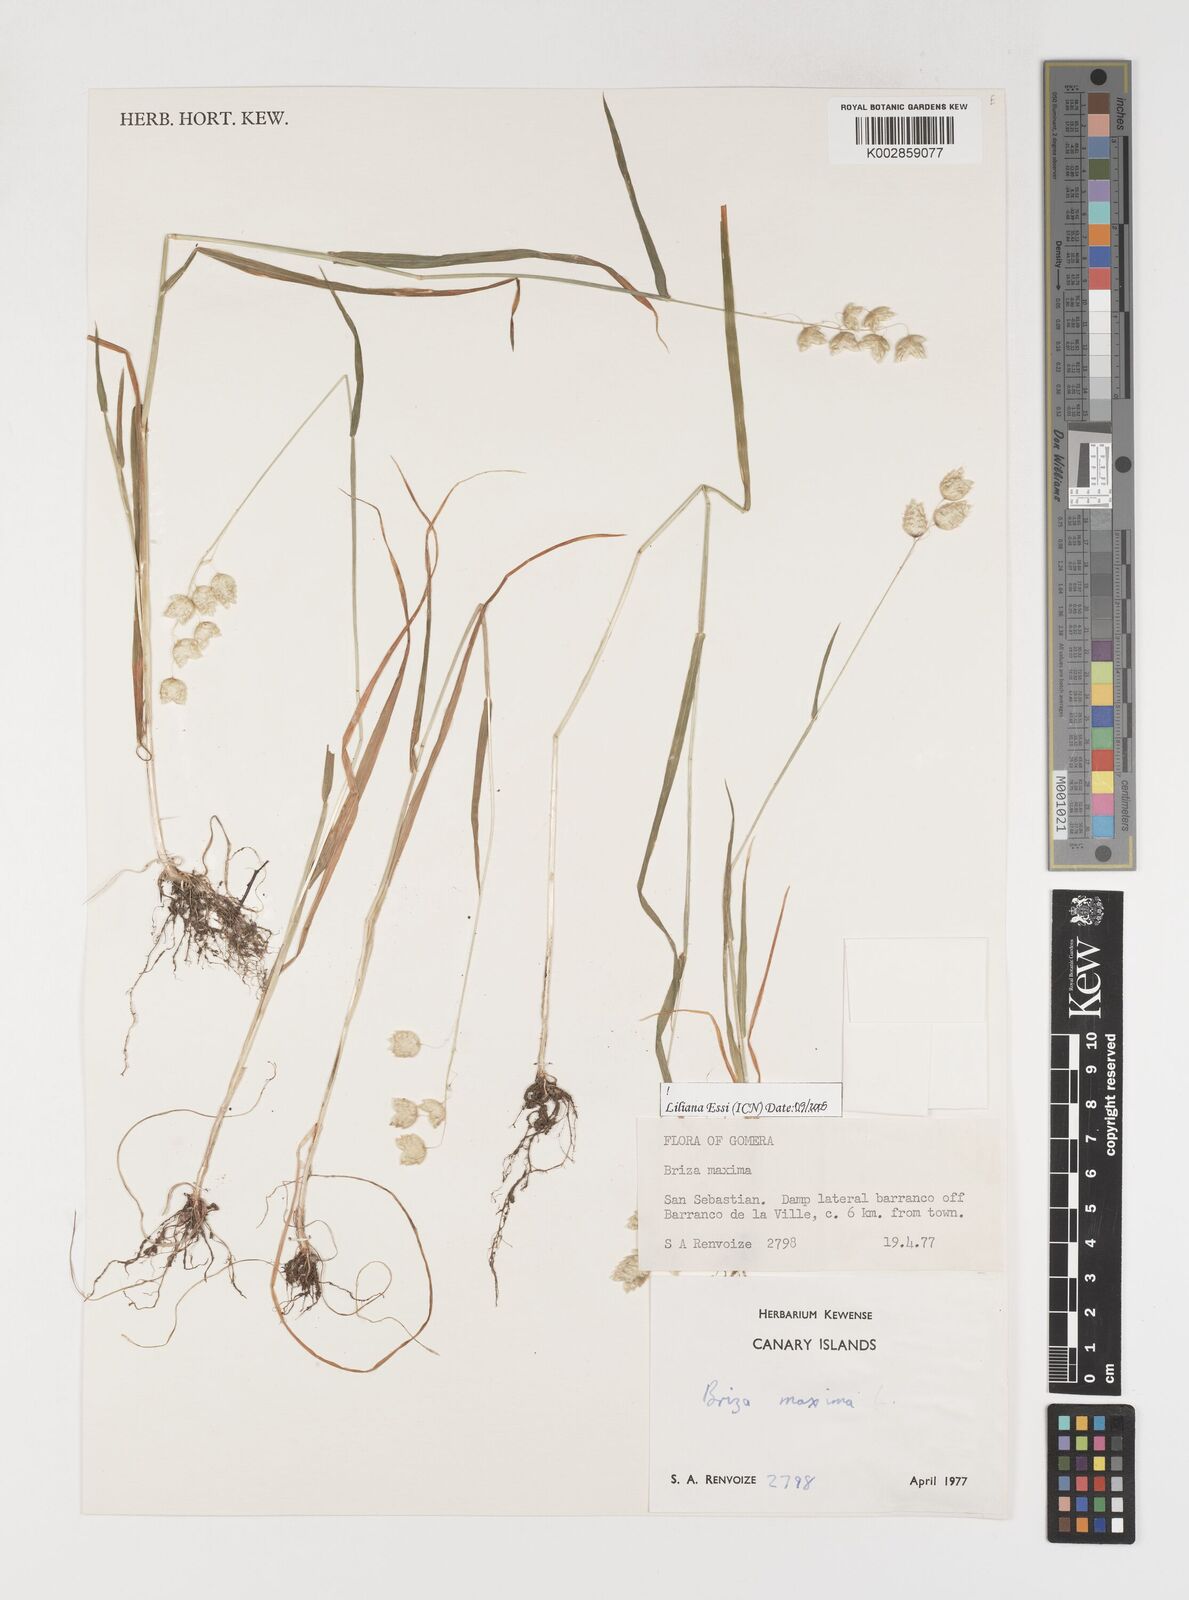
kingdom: Plantae
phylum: Tracheophyta
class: Liliopsida
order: Poales
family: Poaceae
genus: Briza
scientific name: Briza maxima
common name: Big quakinggrass
